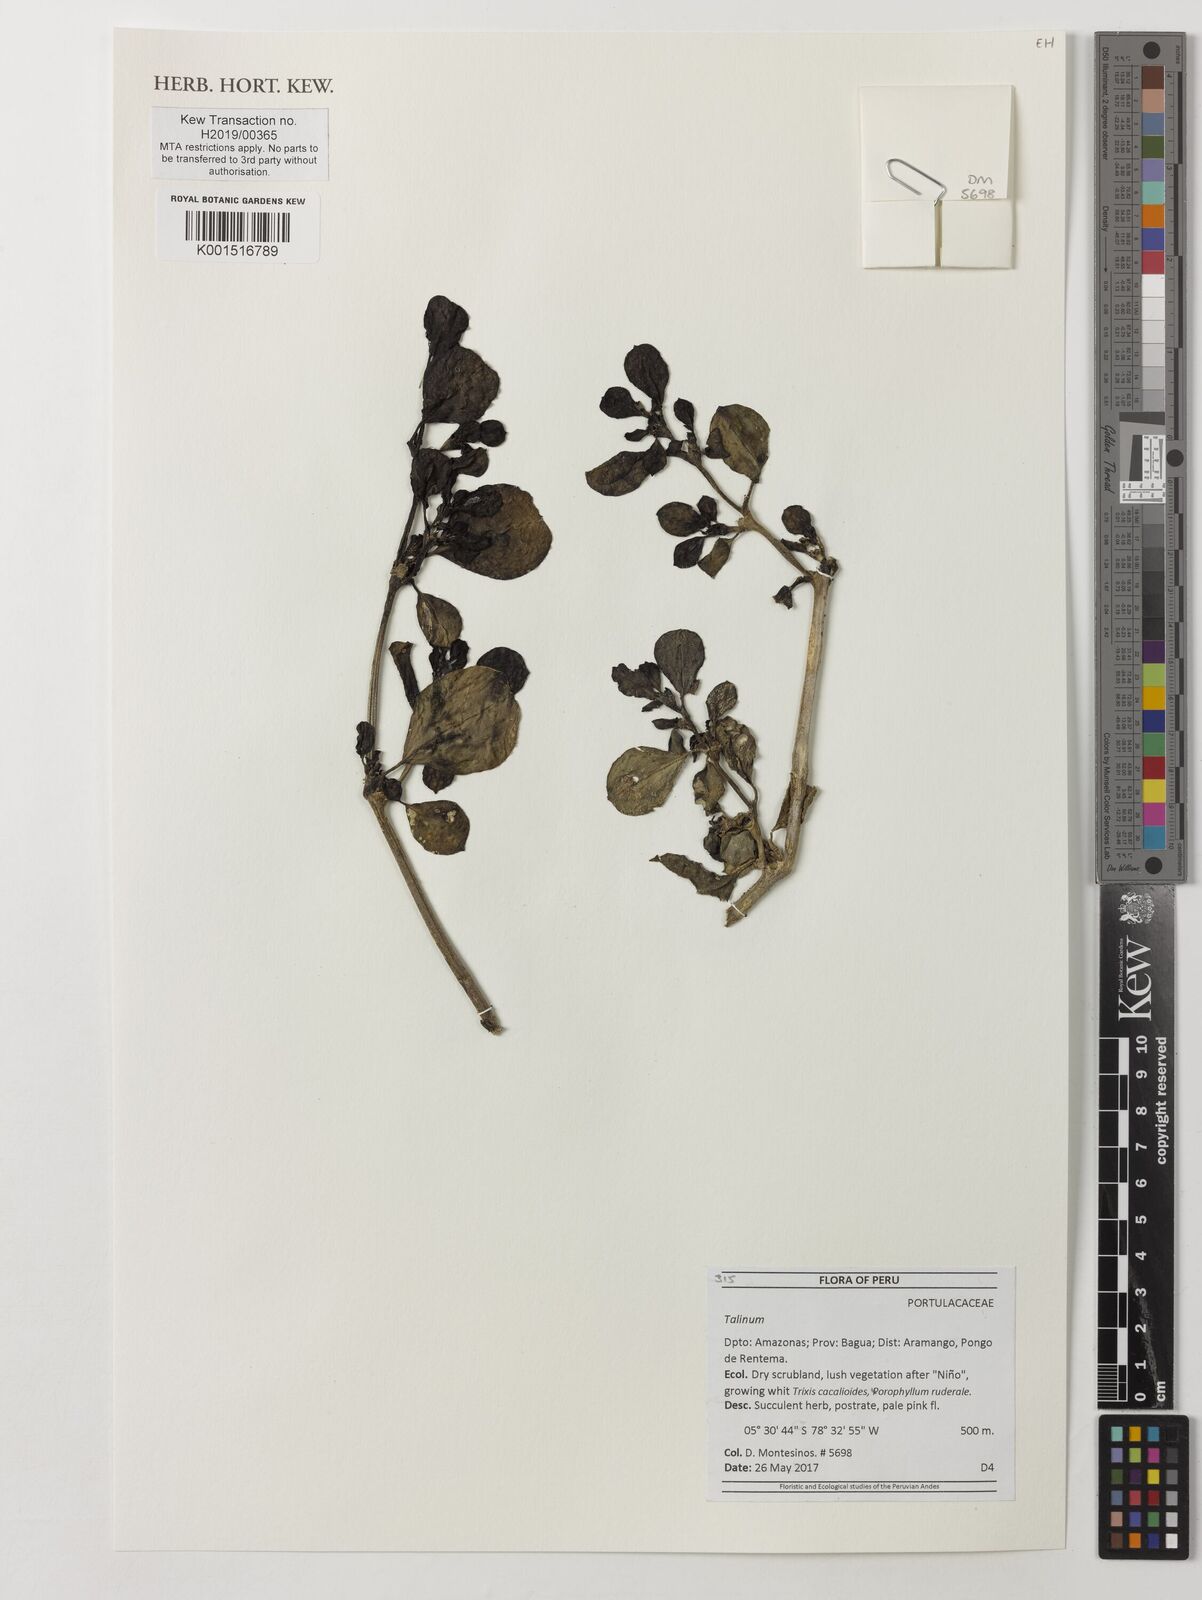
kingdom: Plantae
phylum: Tracheophyta
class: Magnoliopsida
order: Caryophyllales
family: Talinaceae
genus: Talinum
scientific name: Talinum
